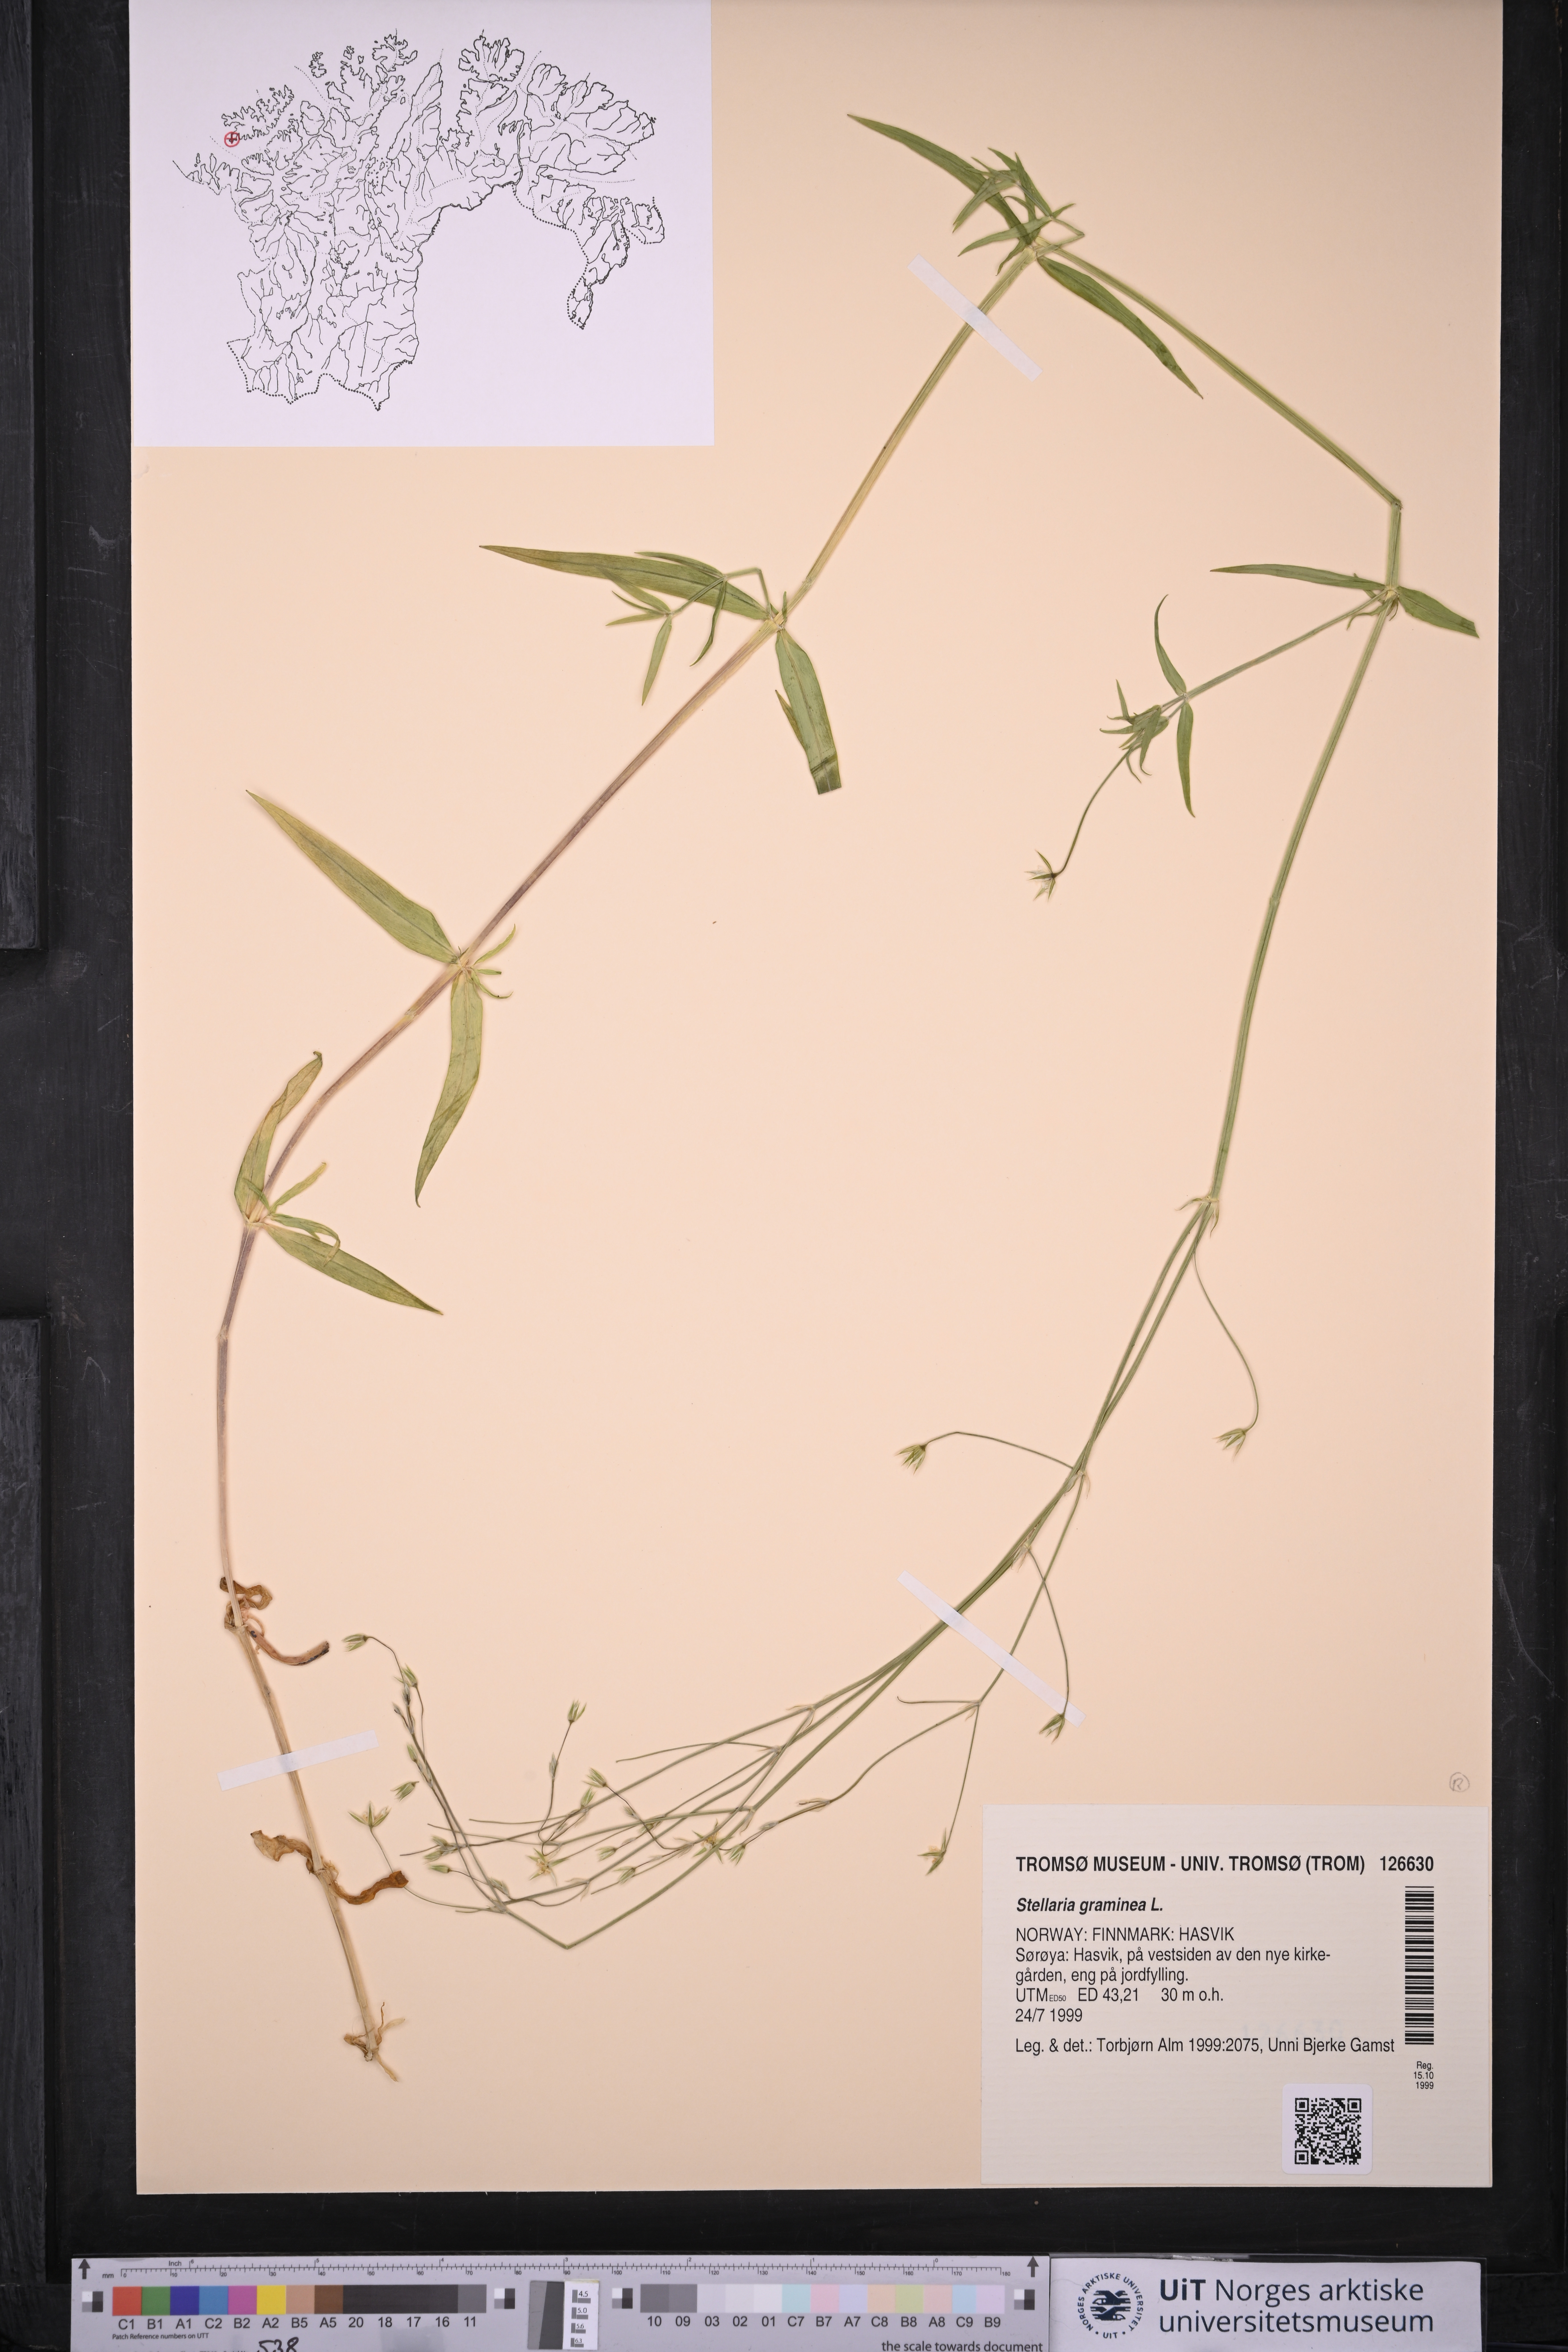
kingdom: Plantae
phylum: Tracheophyta
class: Magnoliopsida
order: Caryophyllales
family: Caryophyllaceae
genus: Stellaria
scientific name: Stellaria graminea
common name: Grass-like starwort
